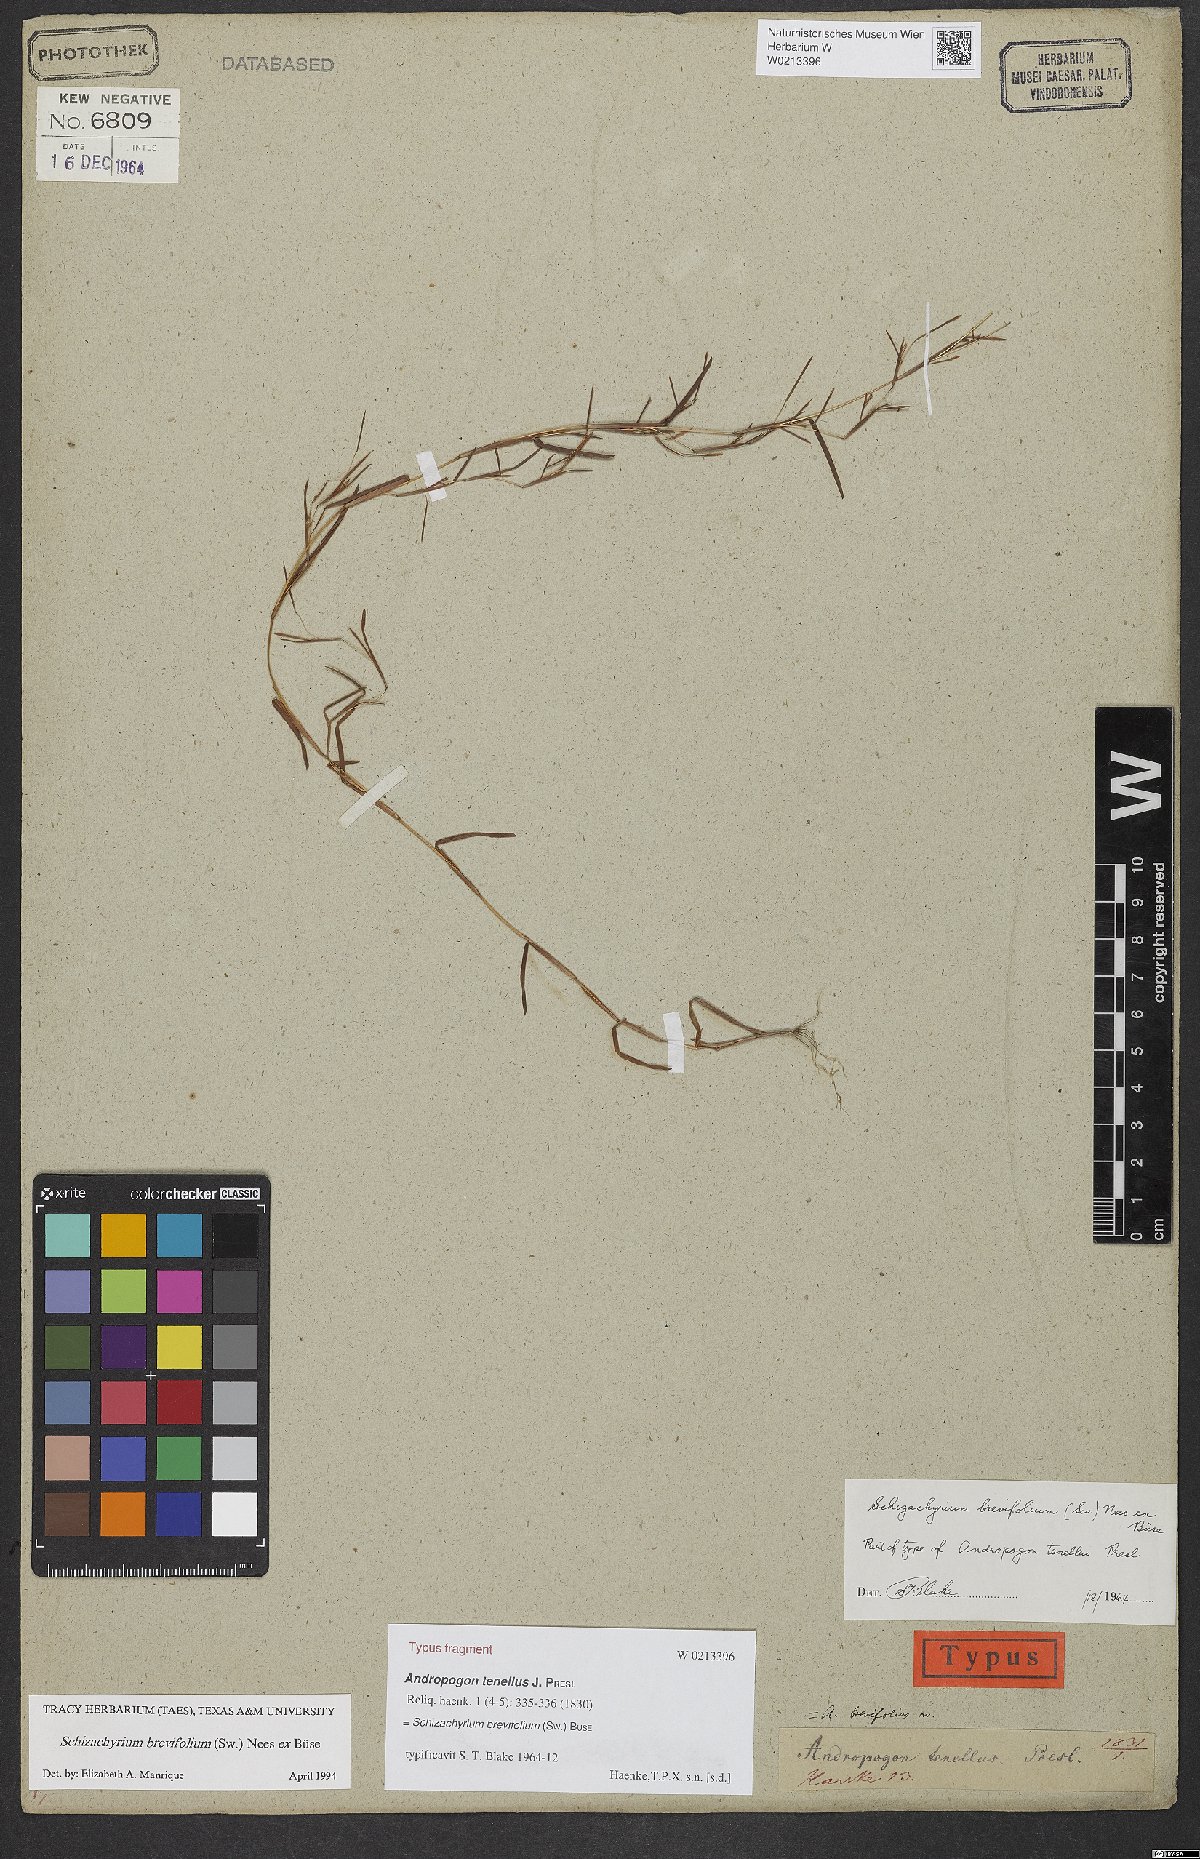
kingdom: Plantae
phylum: Tracheophyta
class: Liliopsida
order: Poales
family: Poaceae
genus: Schizachyrium
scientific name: Schizachyrium brevifolium
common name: Serillo dulce
